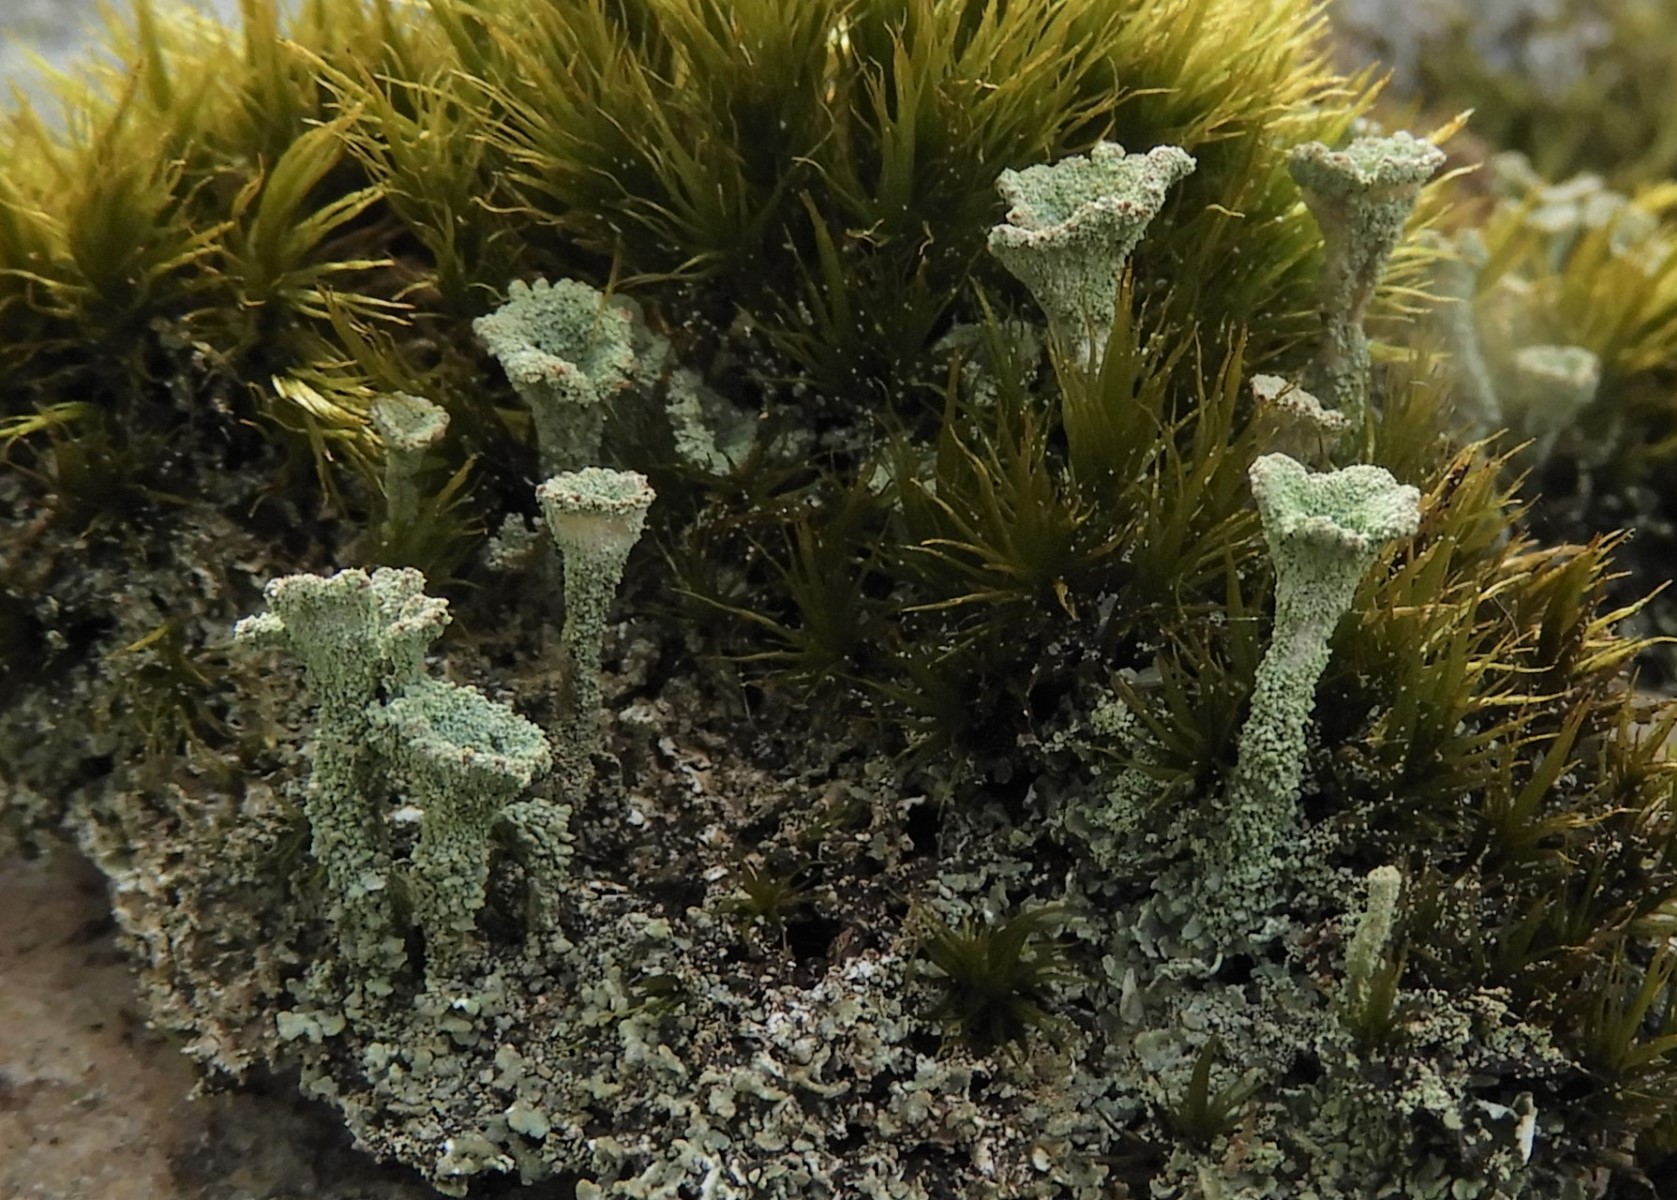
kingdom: Fungi
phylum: Ascomycota
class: Lecanoromycetes
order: Lecanorales
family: Cladoniaceae
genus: Cladonia
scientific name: Cladonia
